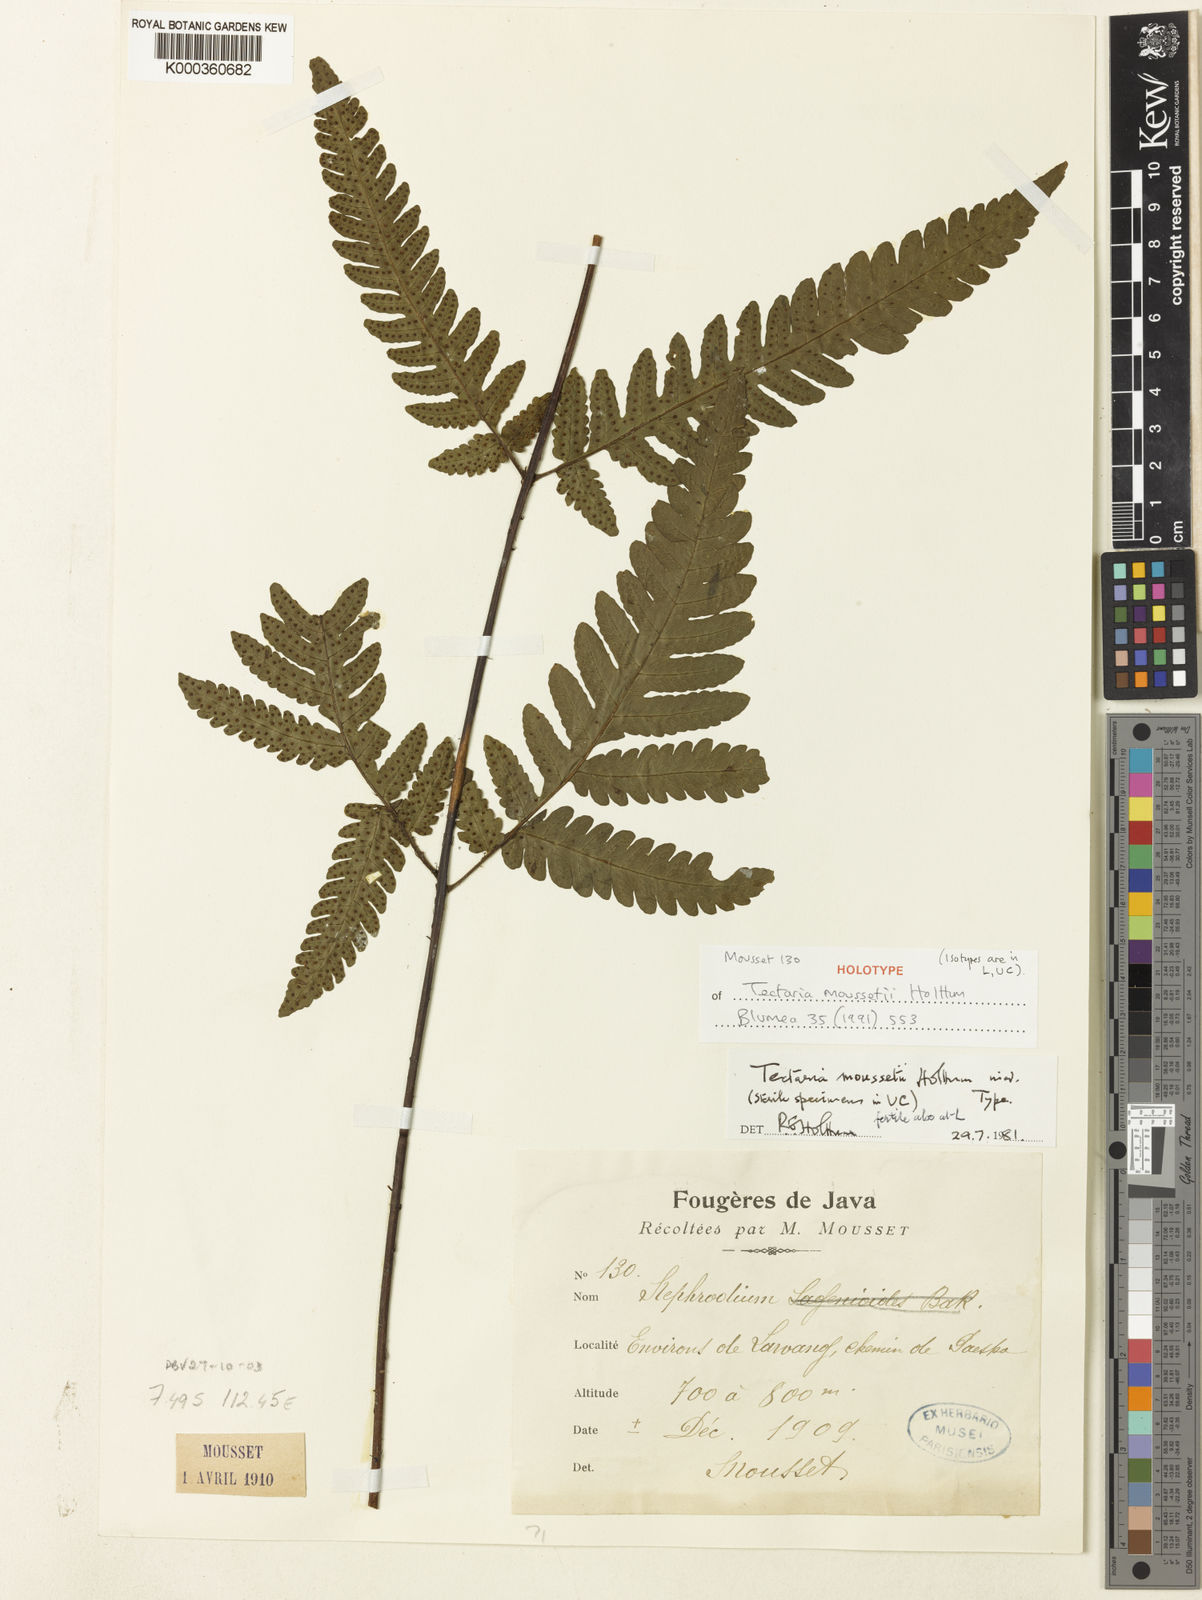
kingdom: Plantae
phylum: Tracheophyta
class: Polypodiopsida
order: Polypodiales
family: Tectariaceae
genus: Tectaria
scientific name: Tectaria moussetii
